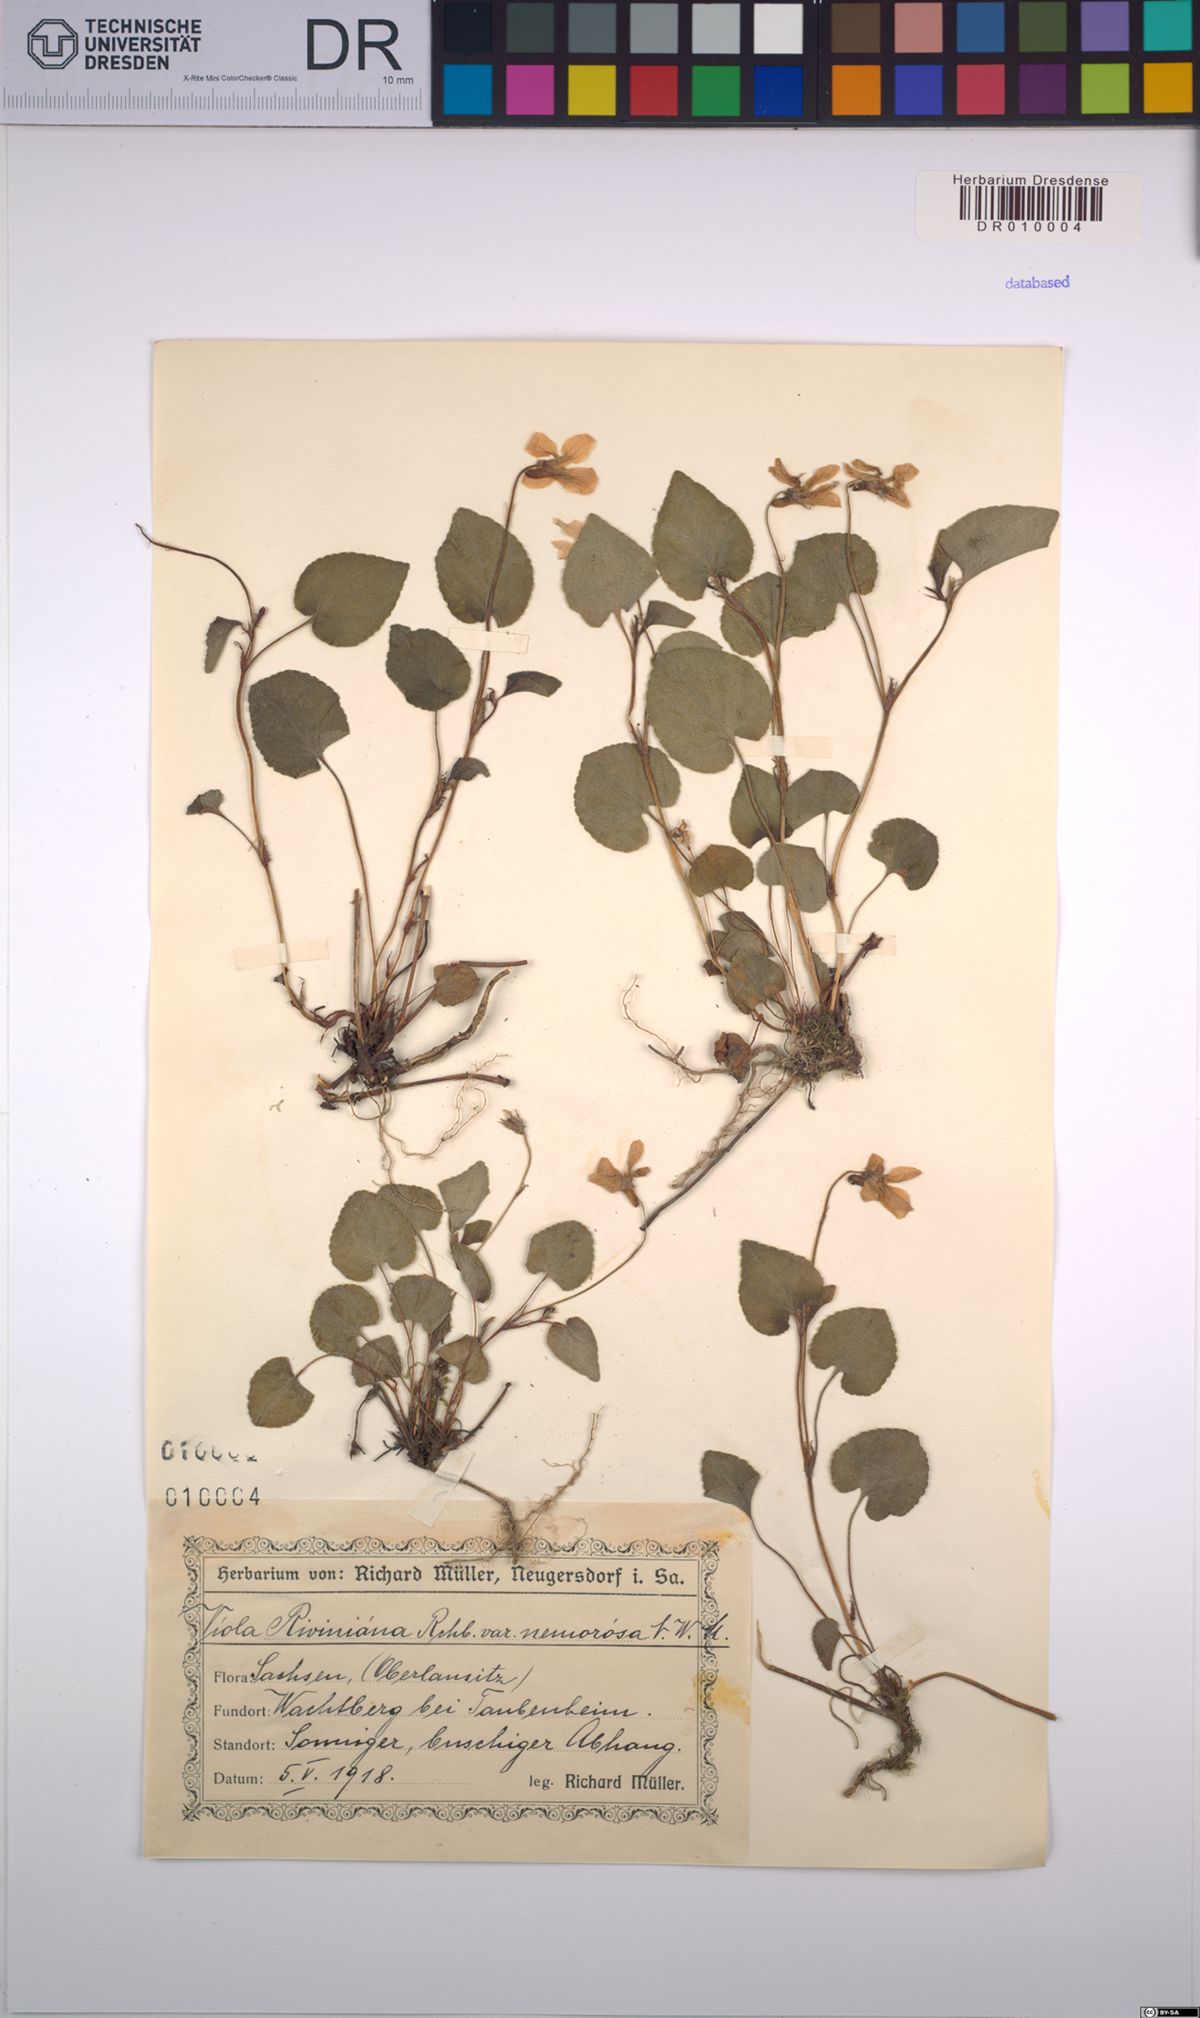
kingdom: Plantae
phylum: Tracheophyta
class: Magnoliopsida
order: Malpighiales
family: Violaceae
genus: Viola
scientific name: Viola riviniana
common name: Common dog-violet
